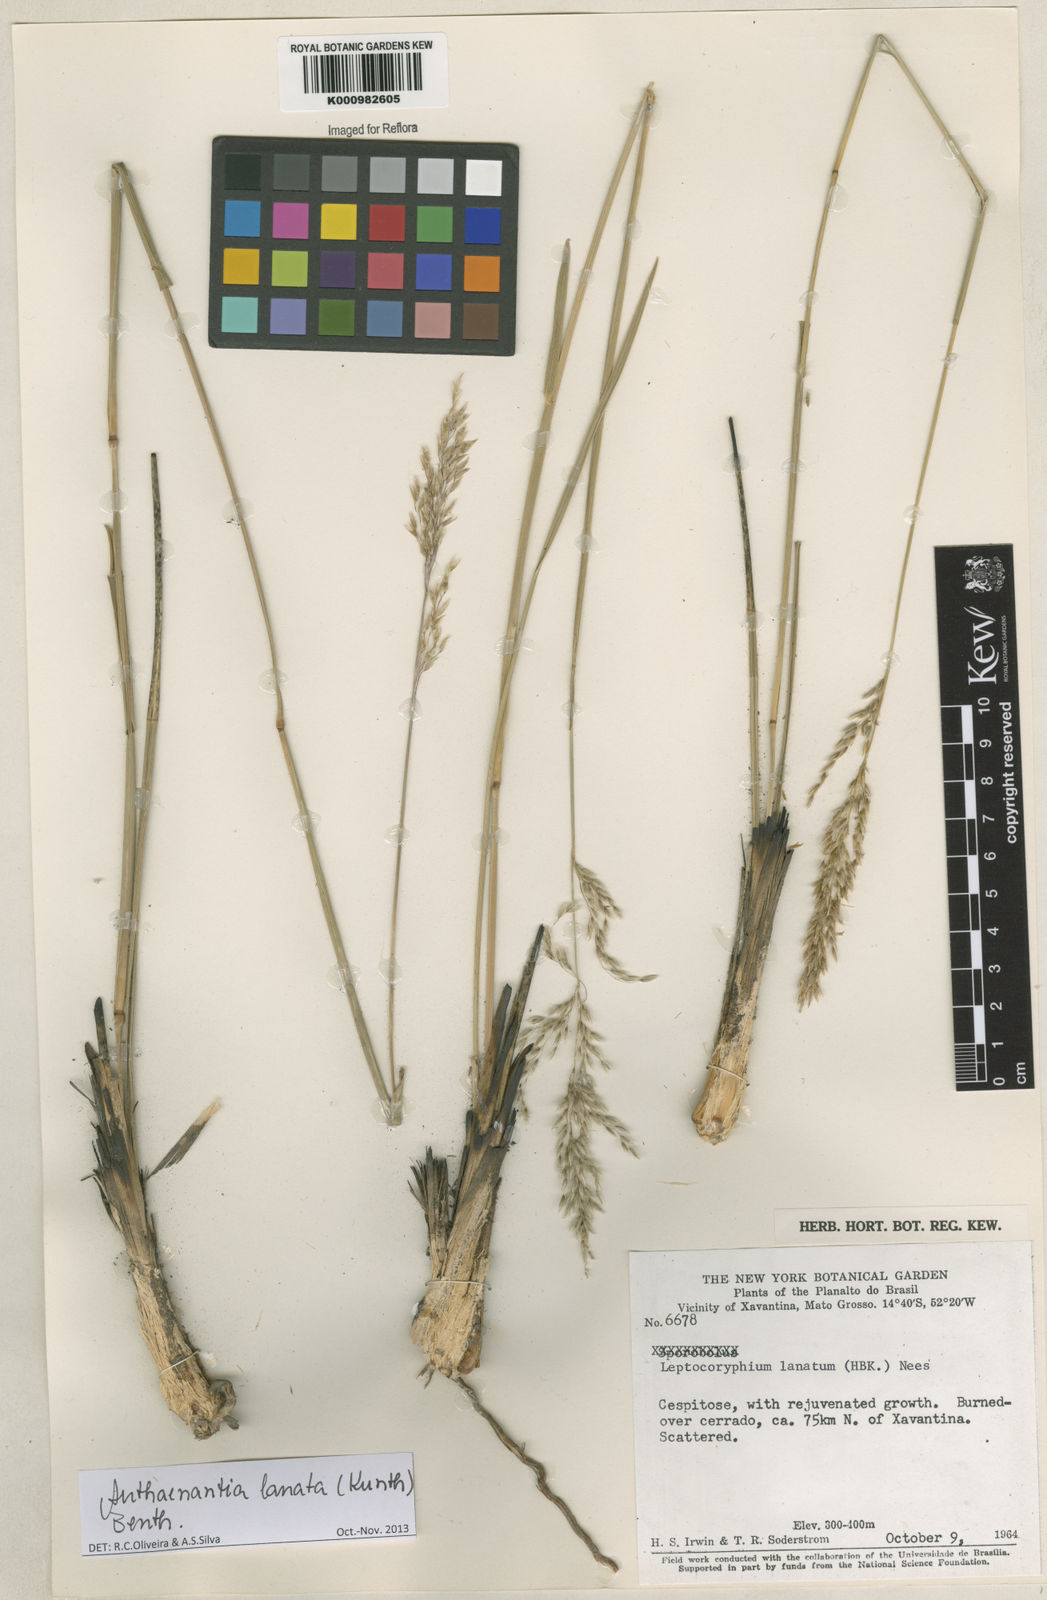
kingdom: Plantae
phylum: Tracheophyta
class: Liliopsida
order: Poales
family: Poaceae
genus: Anthenantia
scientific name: Anthenantia lanata
